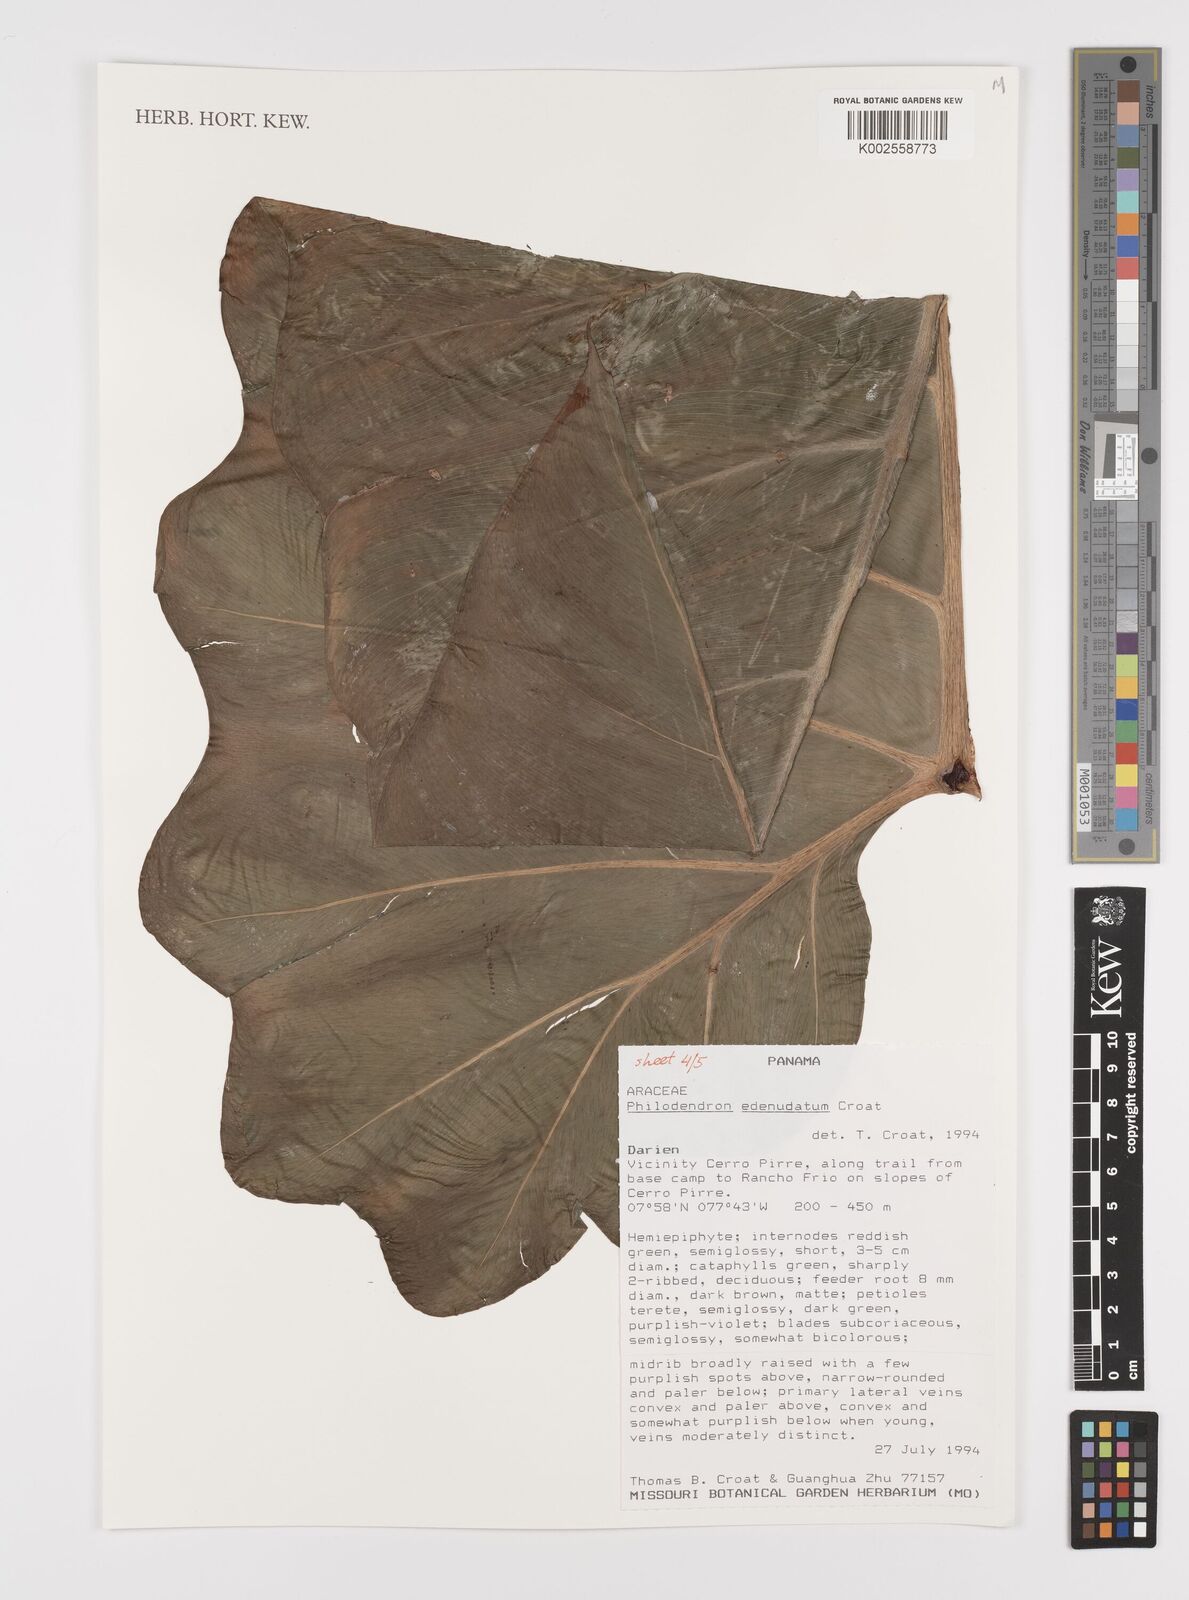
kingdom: Plantae
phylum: Tracheophyta
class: Liliopsida
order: Alismatales
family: Araceae
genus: Philodendron
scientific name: Philodendron edenudatum
